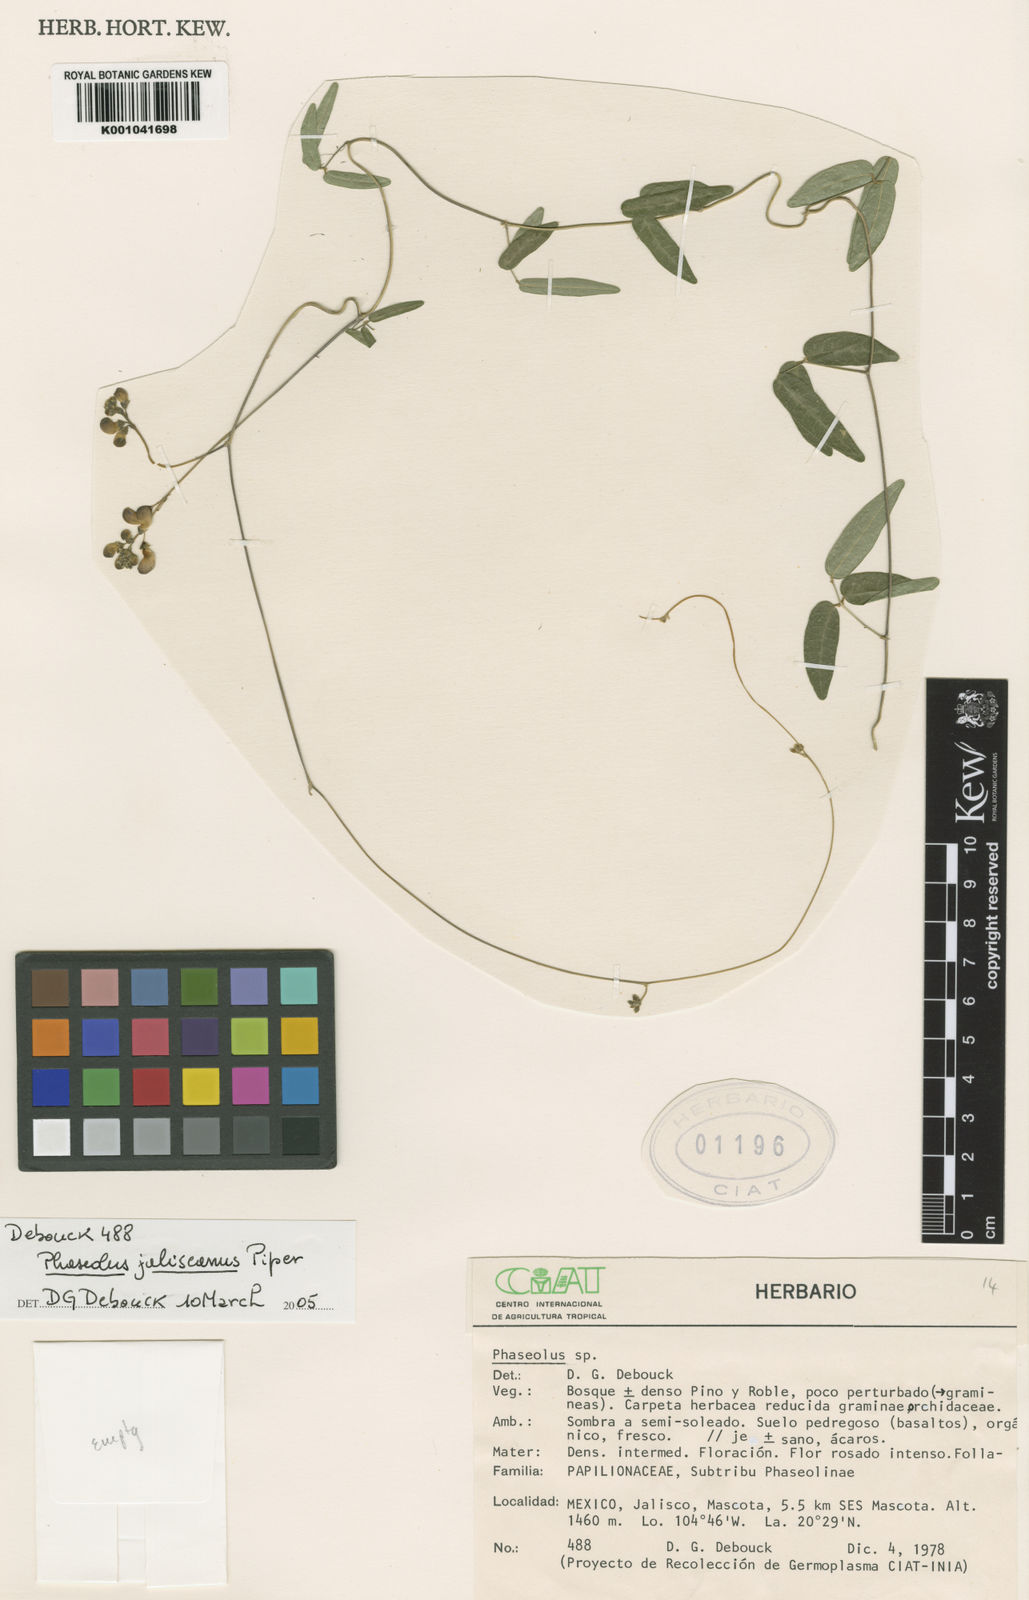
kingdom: Plantae
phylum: Tracheophyta
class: Magnoliopsida
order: Fabales
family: Fabaceae
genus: Phaseolus
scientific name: Phaseolus jaliscanus
